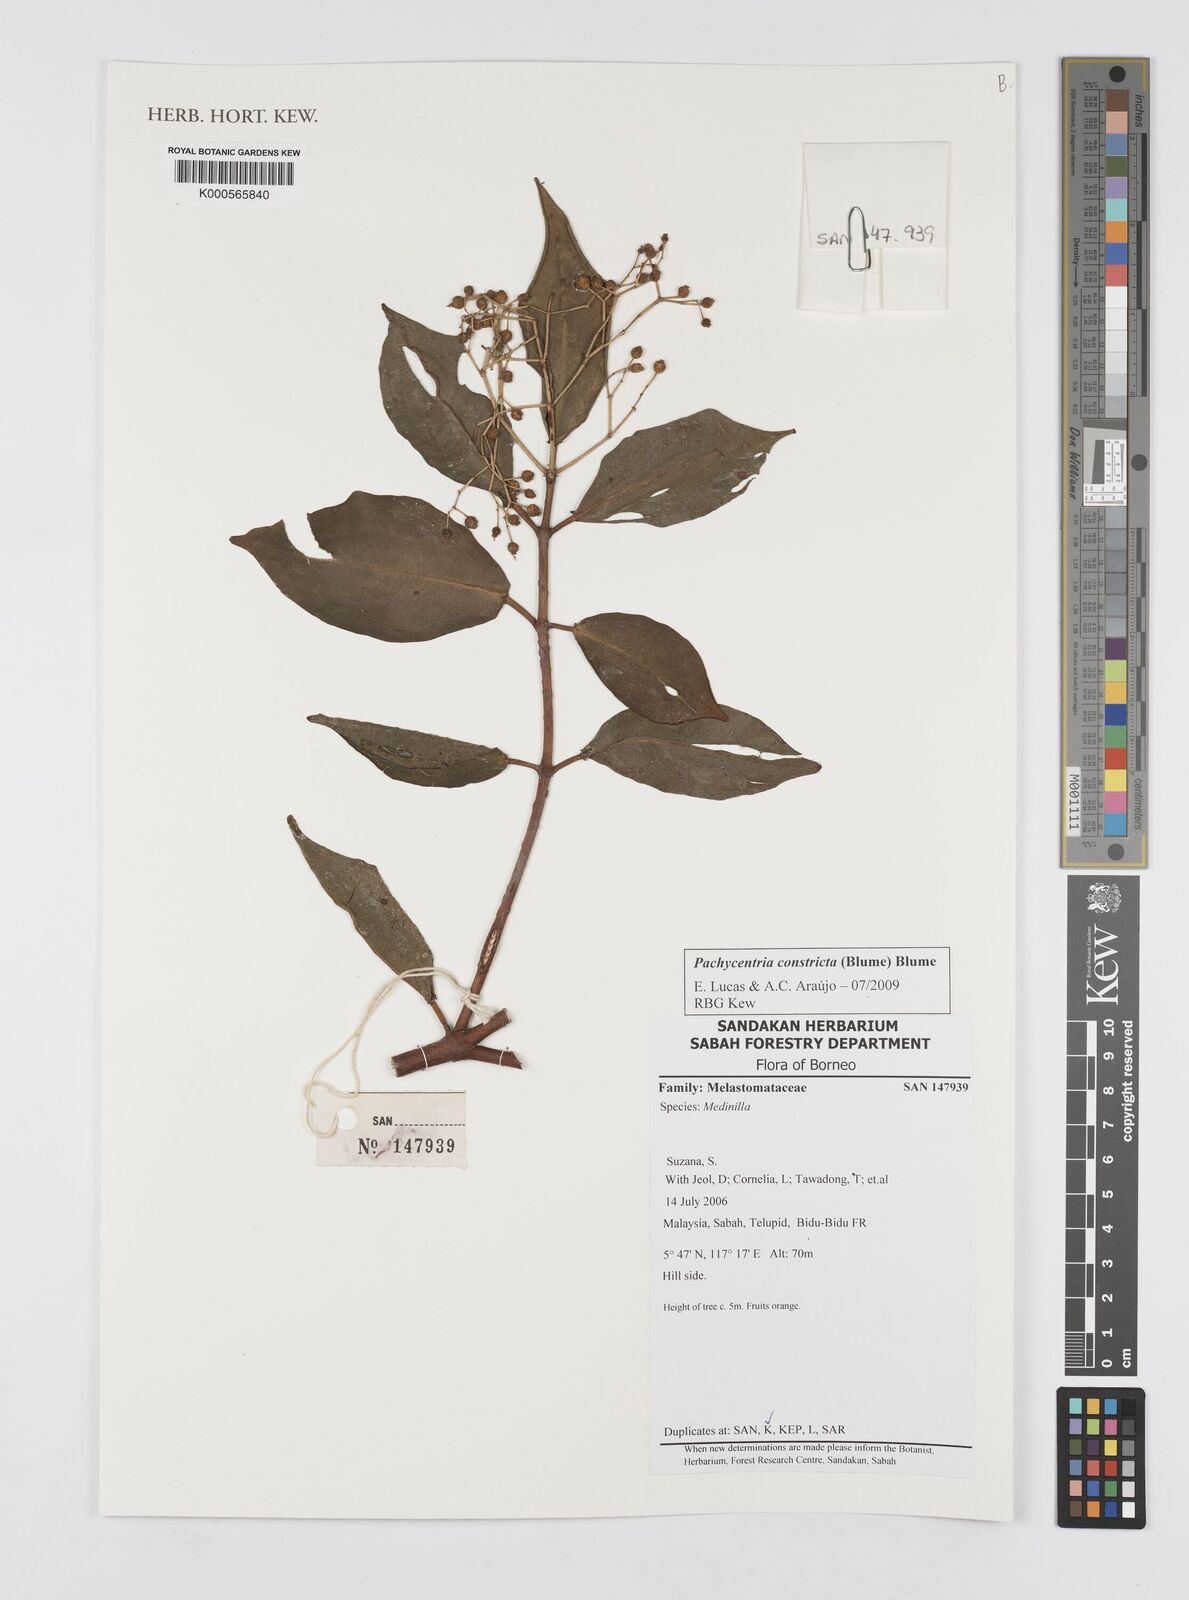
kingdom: Plantae
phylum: Tracheophyta
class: Magnoliopsida
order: Myrtales
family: Melastomataceae
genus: Pachycentria
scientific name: Pachycentria constricta
